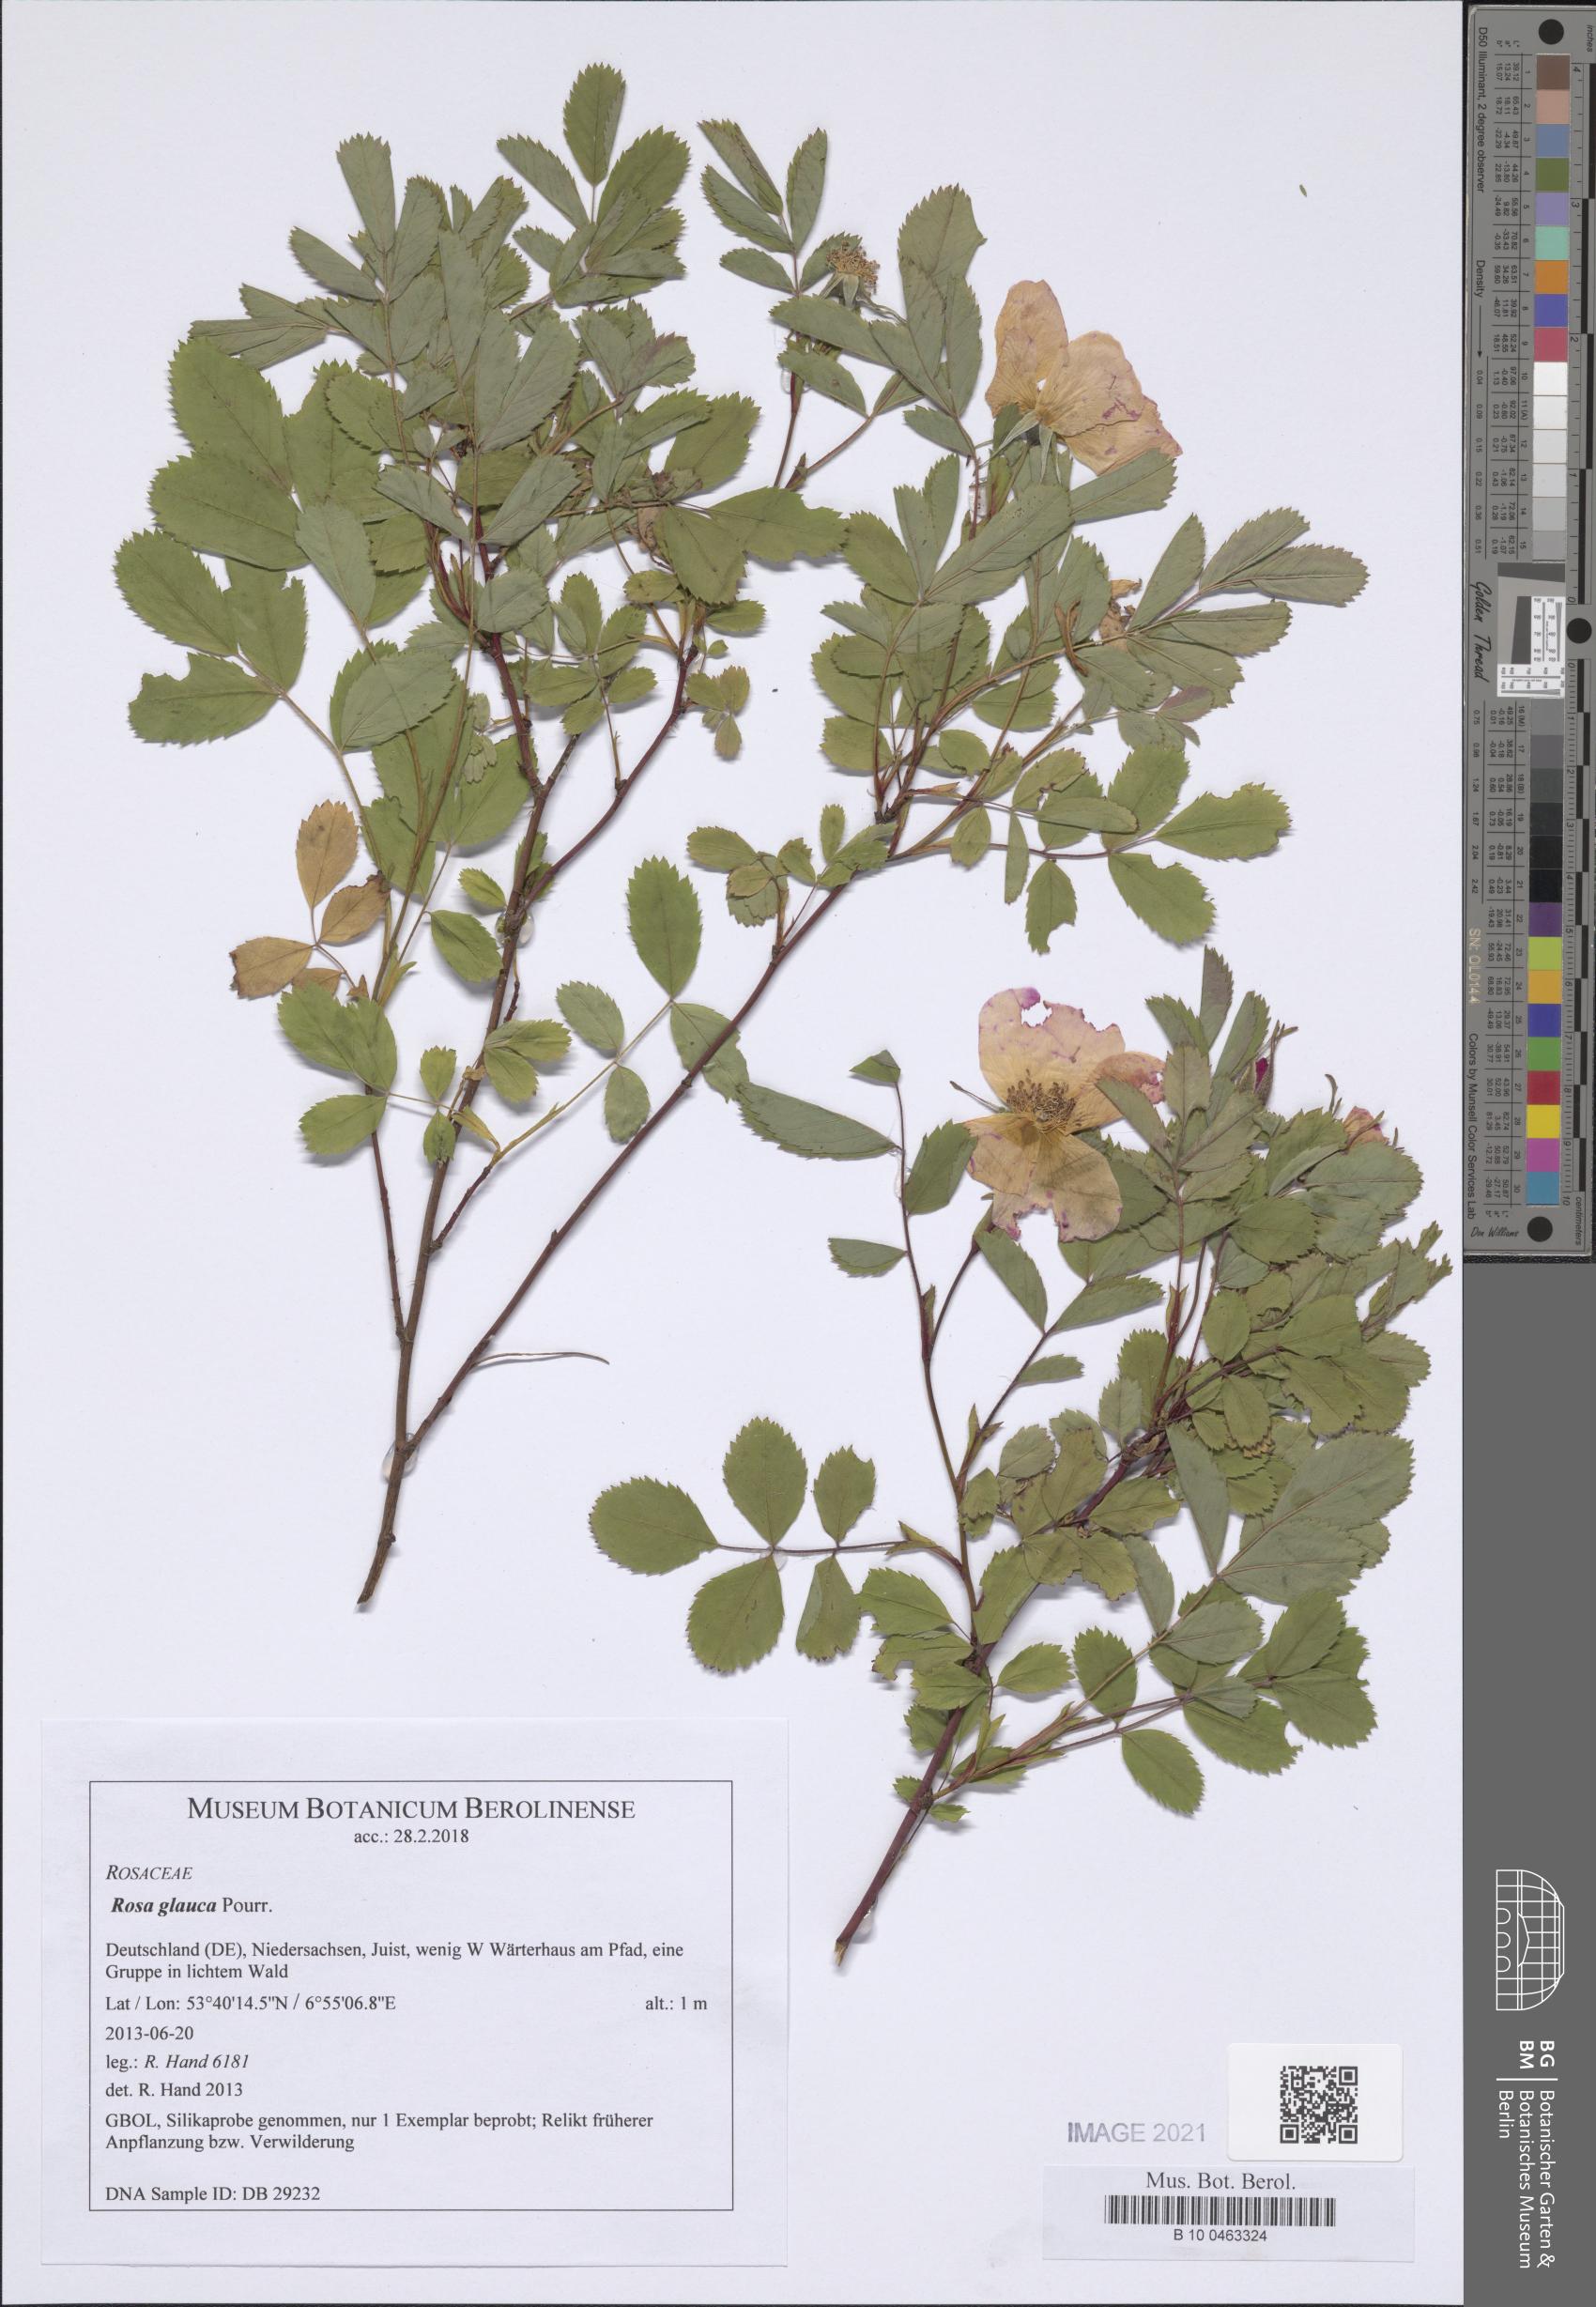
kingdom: Plantae
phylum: Tracheophyta
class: Magnoliopsida
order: Rosales
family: Rosaceae
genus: Rosa
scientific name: Rosa glauca
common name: Redleaf rose
